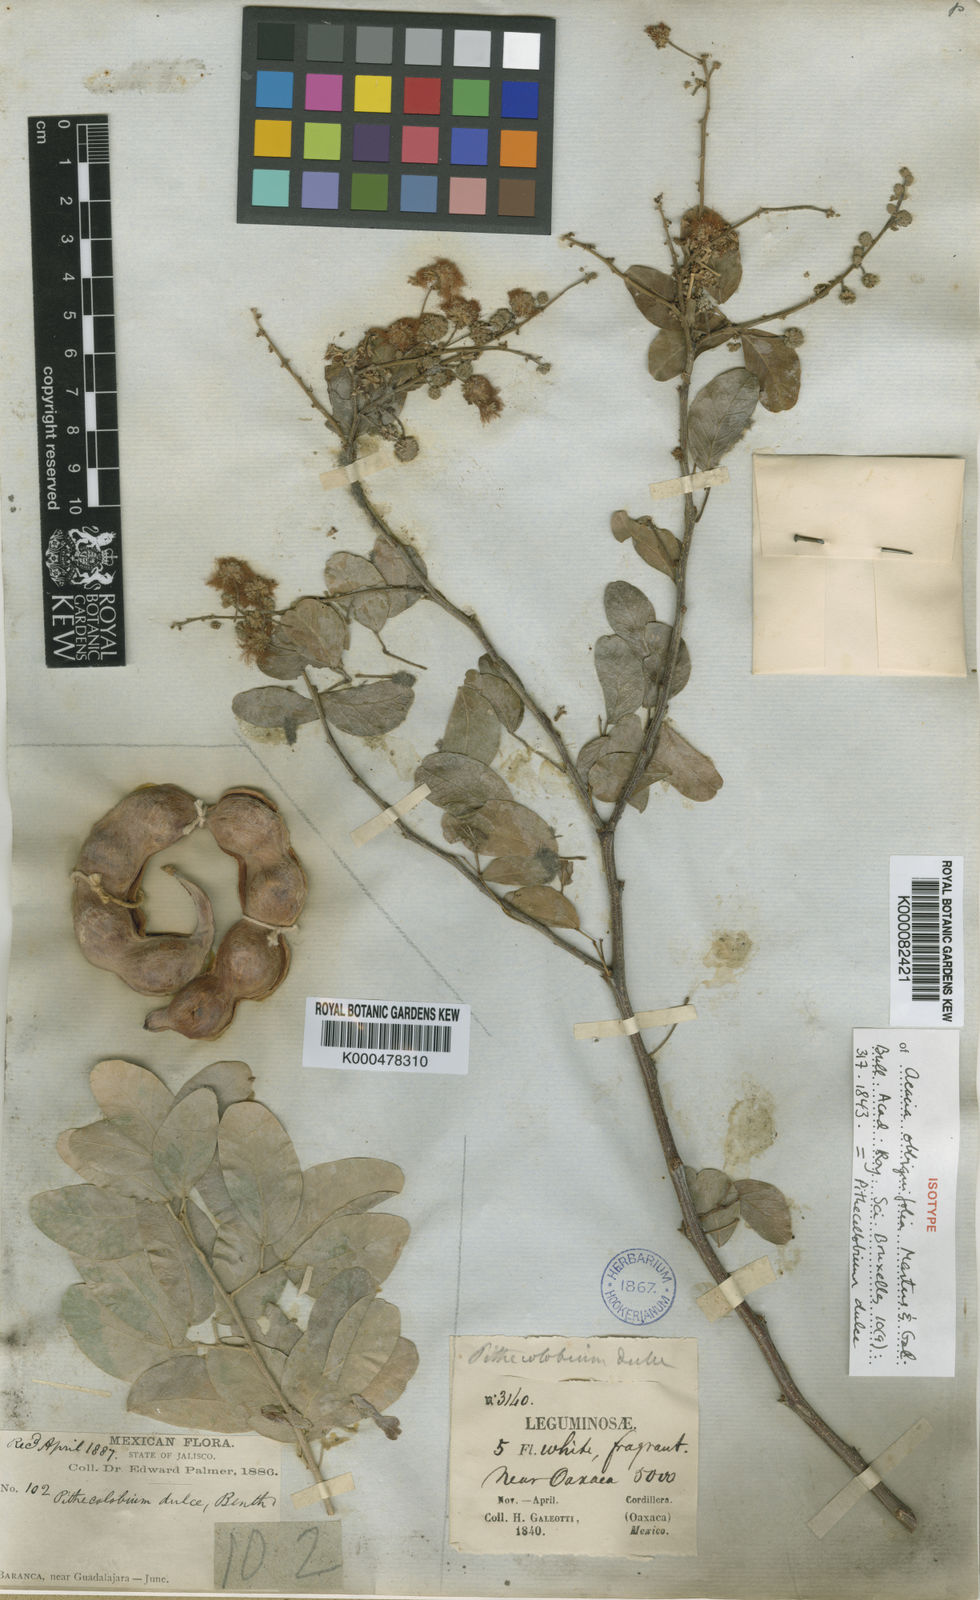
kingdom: Plantae
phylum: Tracheophyta
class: Magnoliopsida
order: Fabales
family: Fabaceae
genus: Pithecellobium
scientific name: Pithecellobium dulce
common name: Monkeypod
